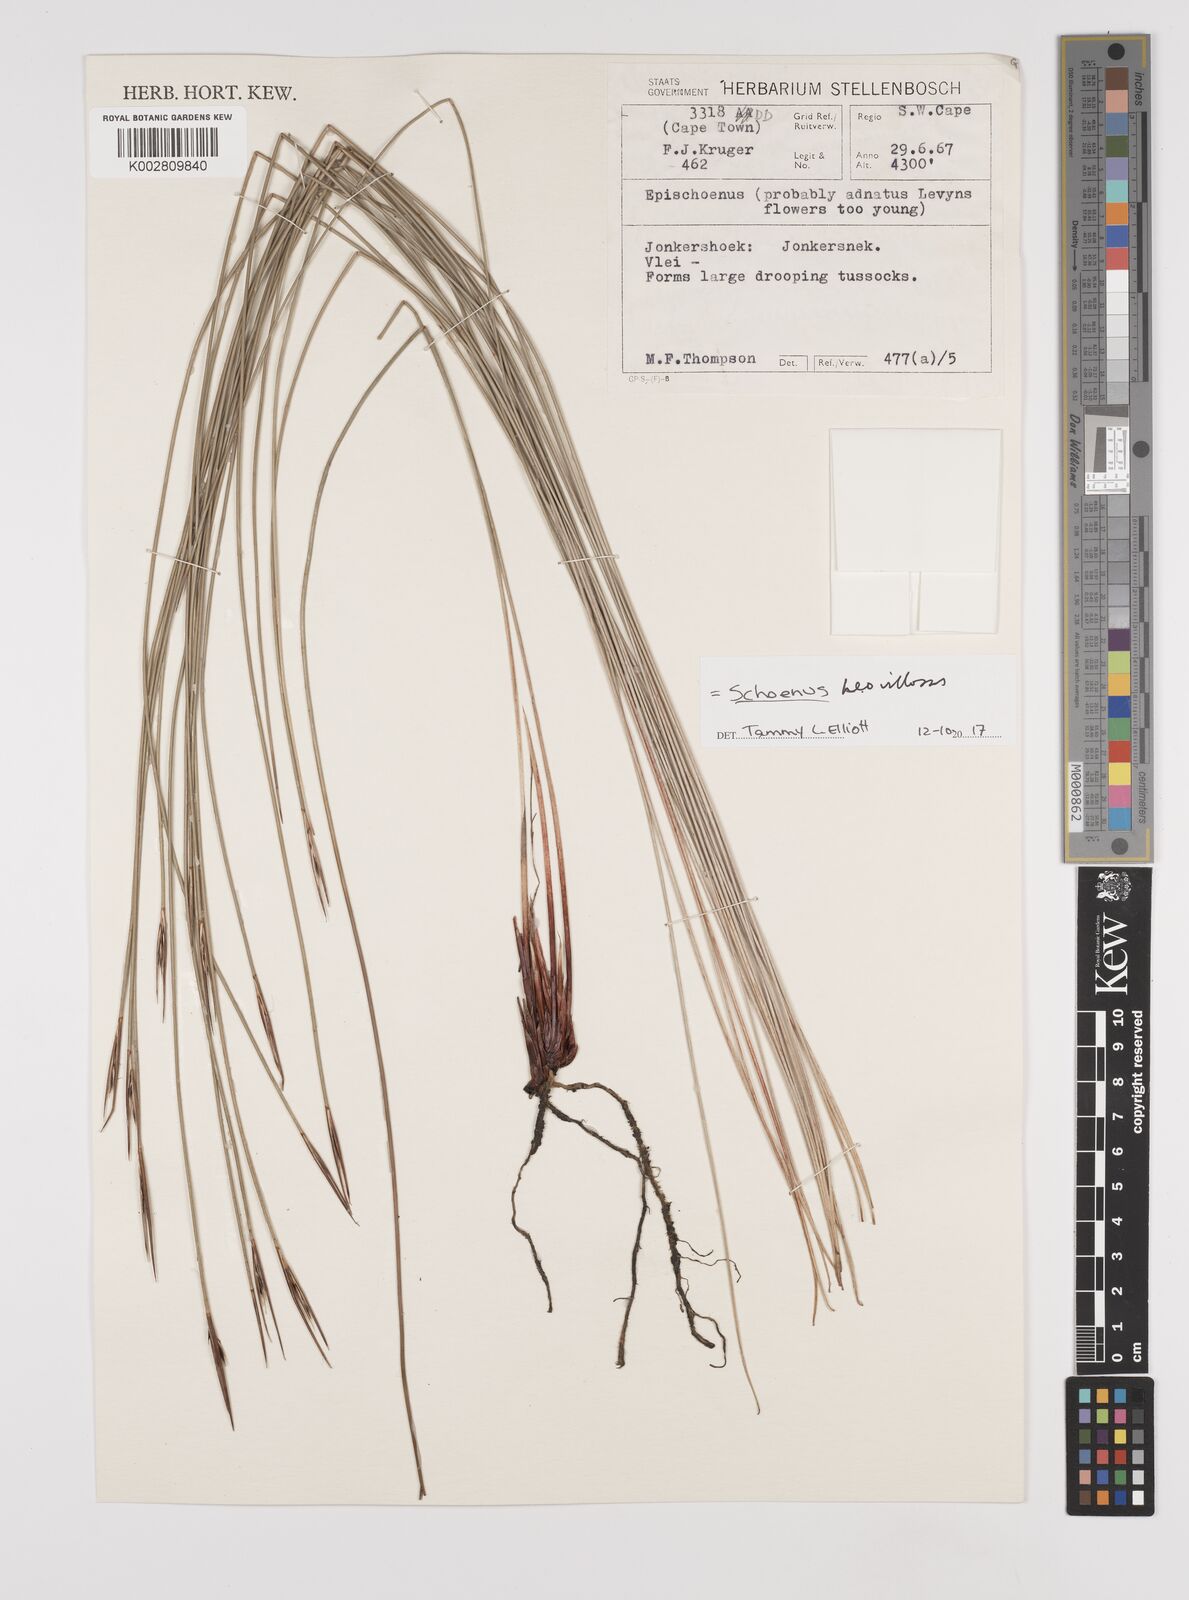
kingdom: Plantae
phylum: Tracheophyta
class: Liliopsida
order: Poales
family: Cyperaceae
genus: Schoenus
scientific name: Schoenus quadrangularis
